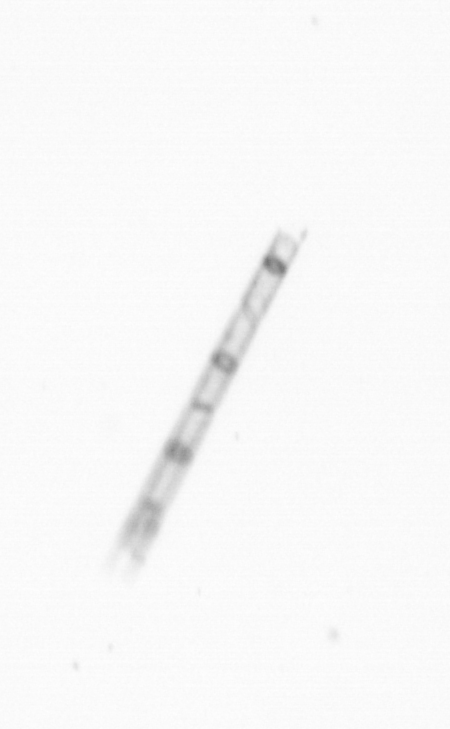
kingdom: Chromista
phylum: Ochrophyta
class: Bacillariophyceae
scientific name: Bacillariophyceae
